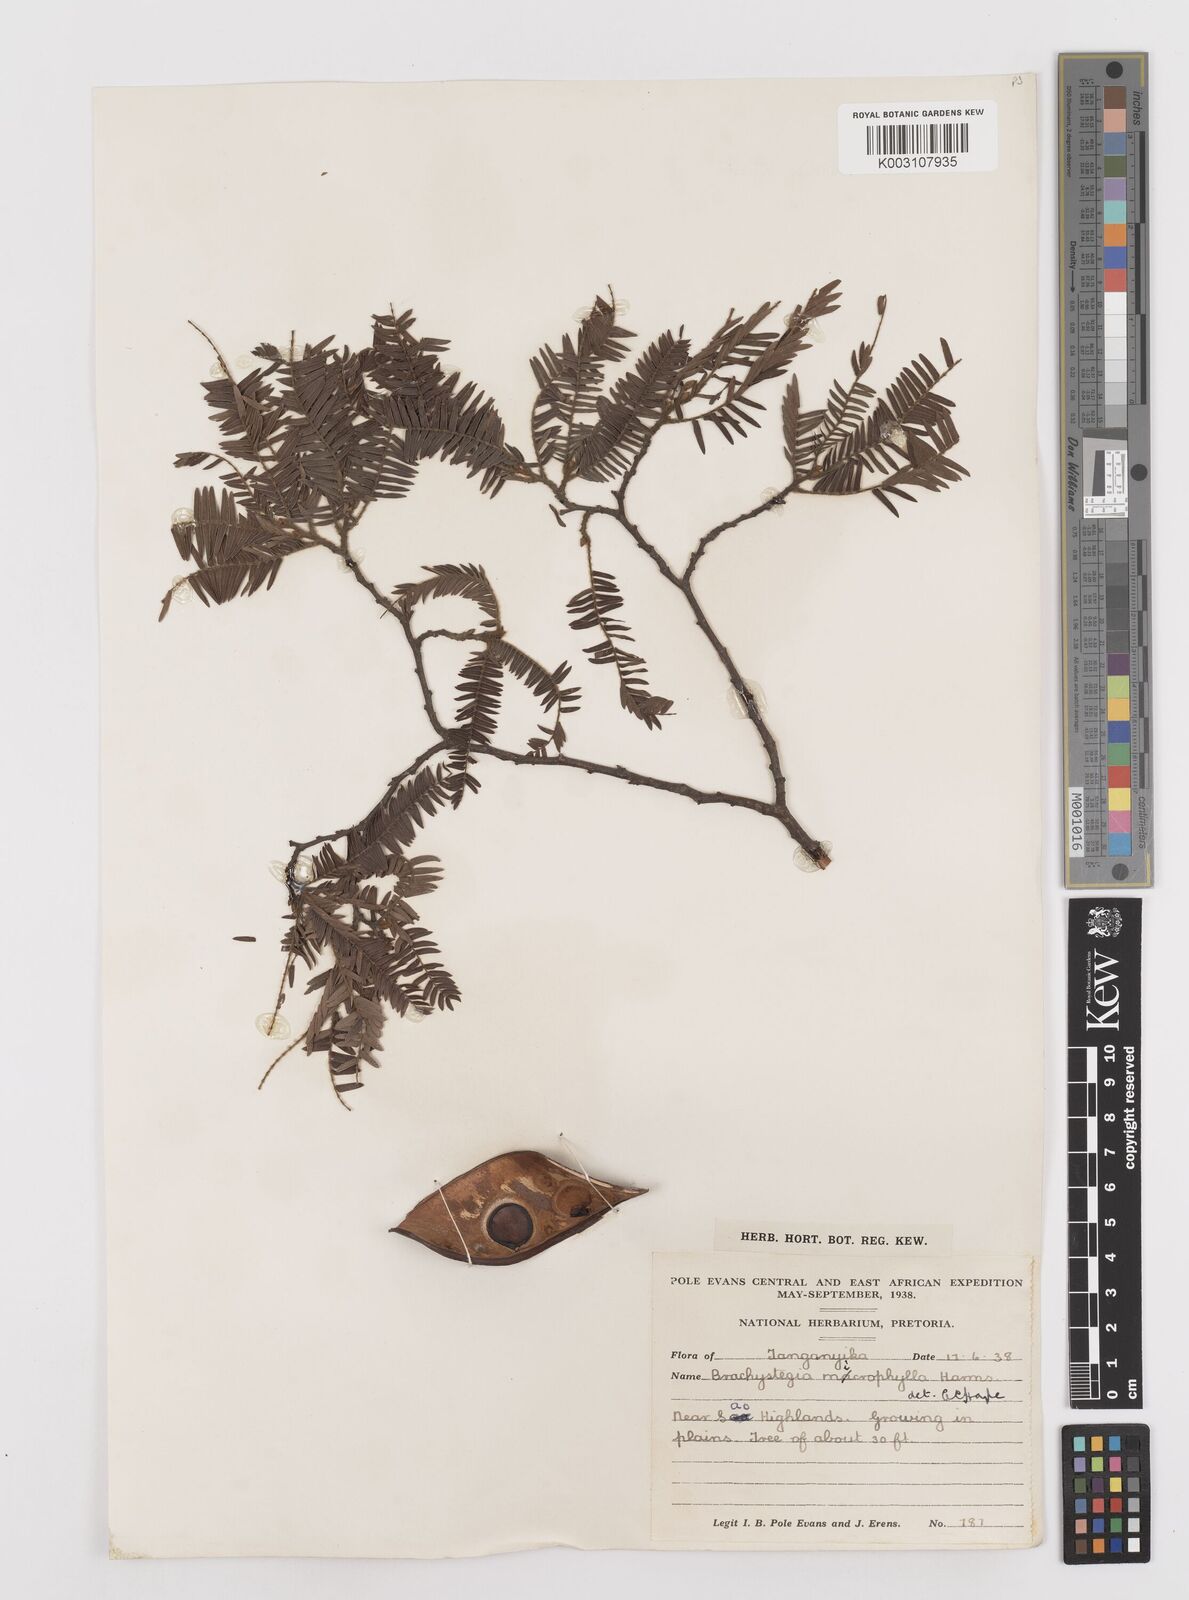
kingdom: Plantae
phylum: Tracheophyta
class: Magnoliopsida
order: Fabales
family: Fabaceae
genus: Brachystegia
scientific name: Brachystegia
